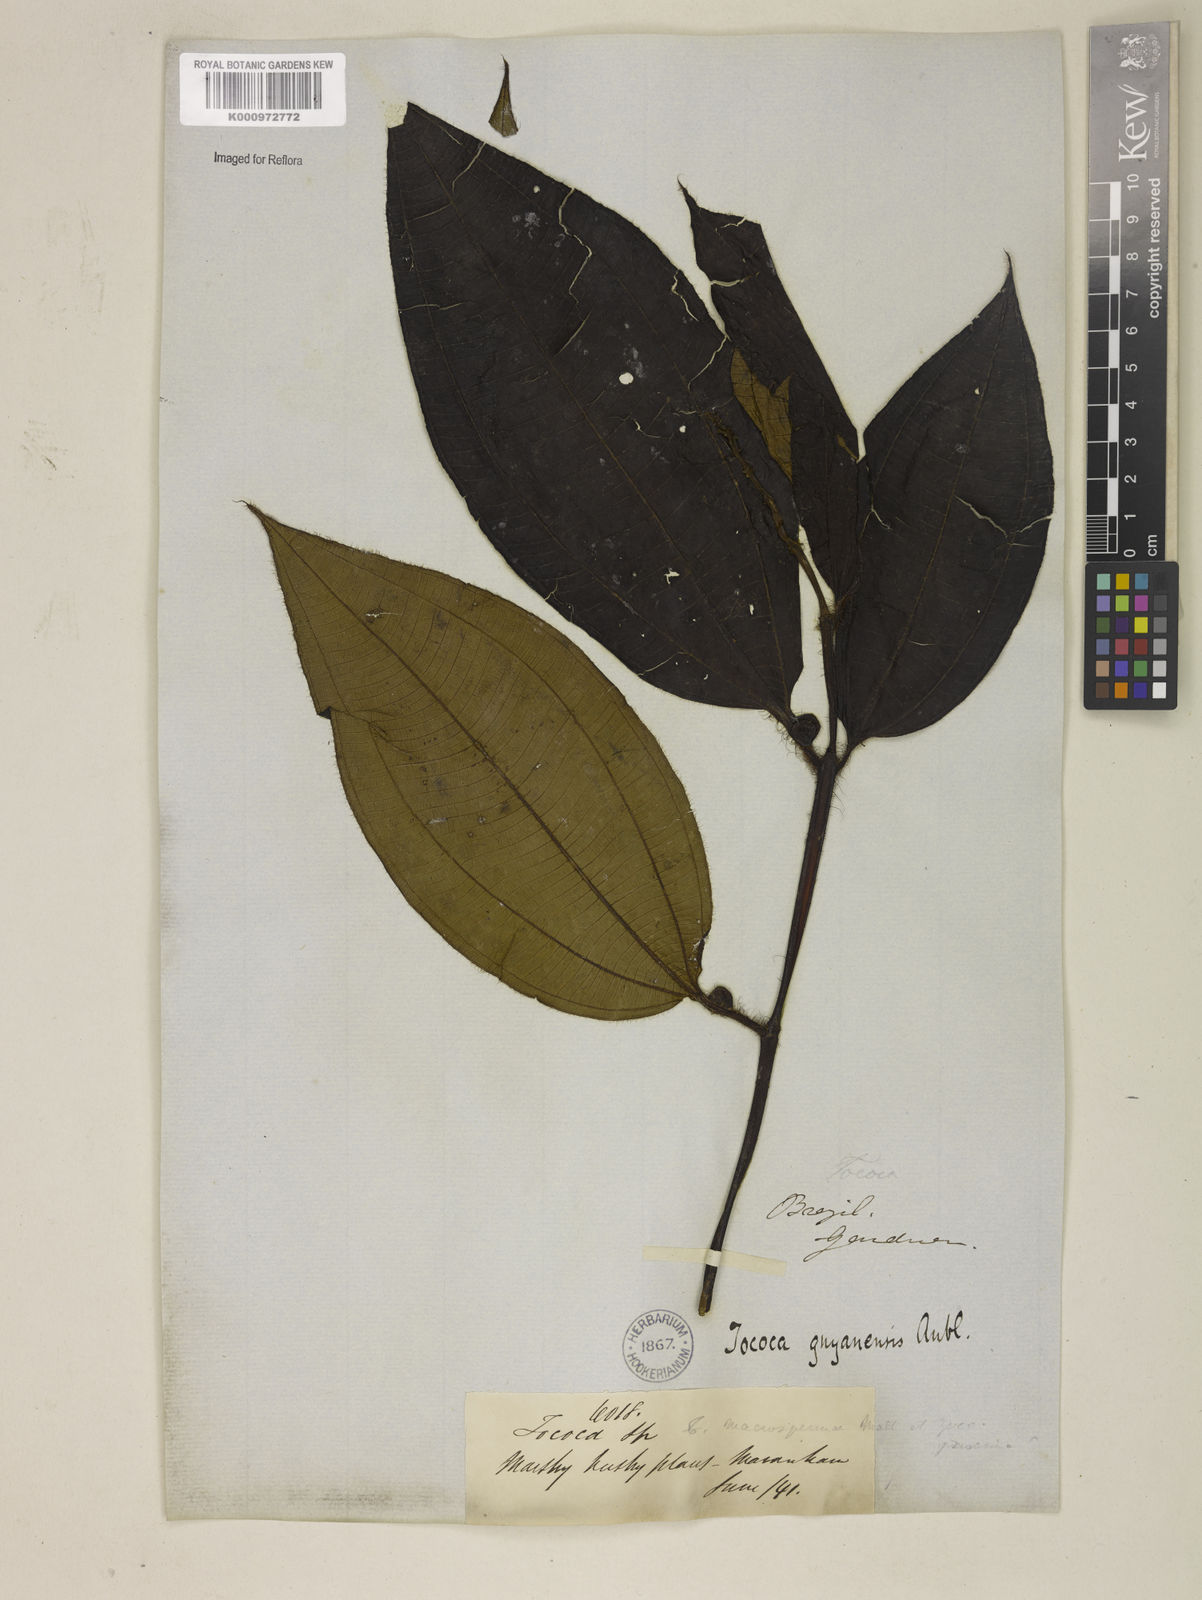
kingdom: Plantae
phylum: Tracheophyta
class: Magnoliopsida
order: Myrtales
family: Melastomataceae
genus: Miconia
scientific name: Miconia tococa
